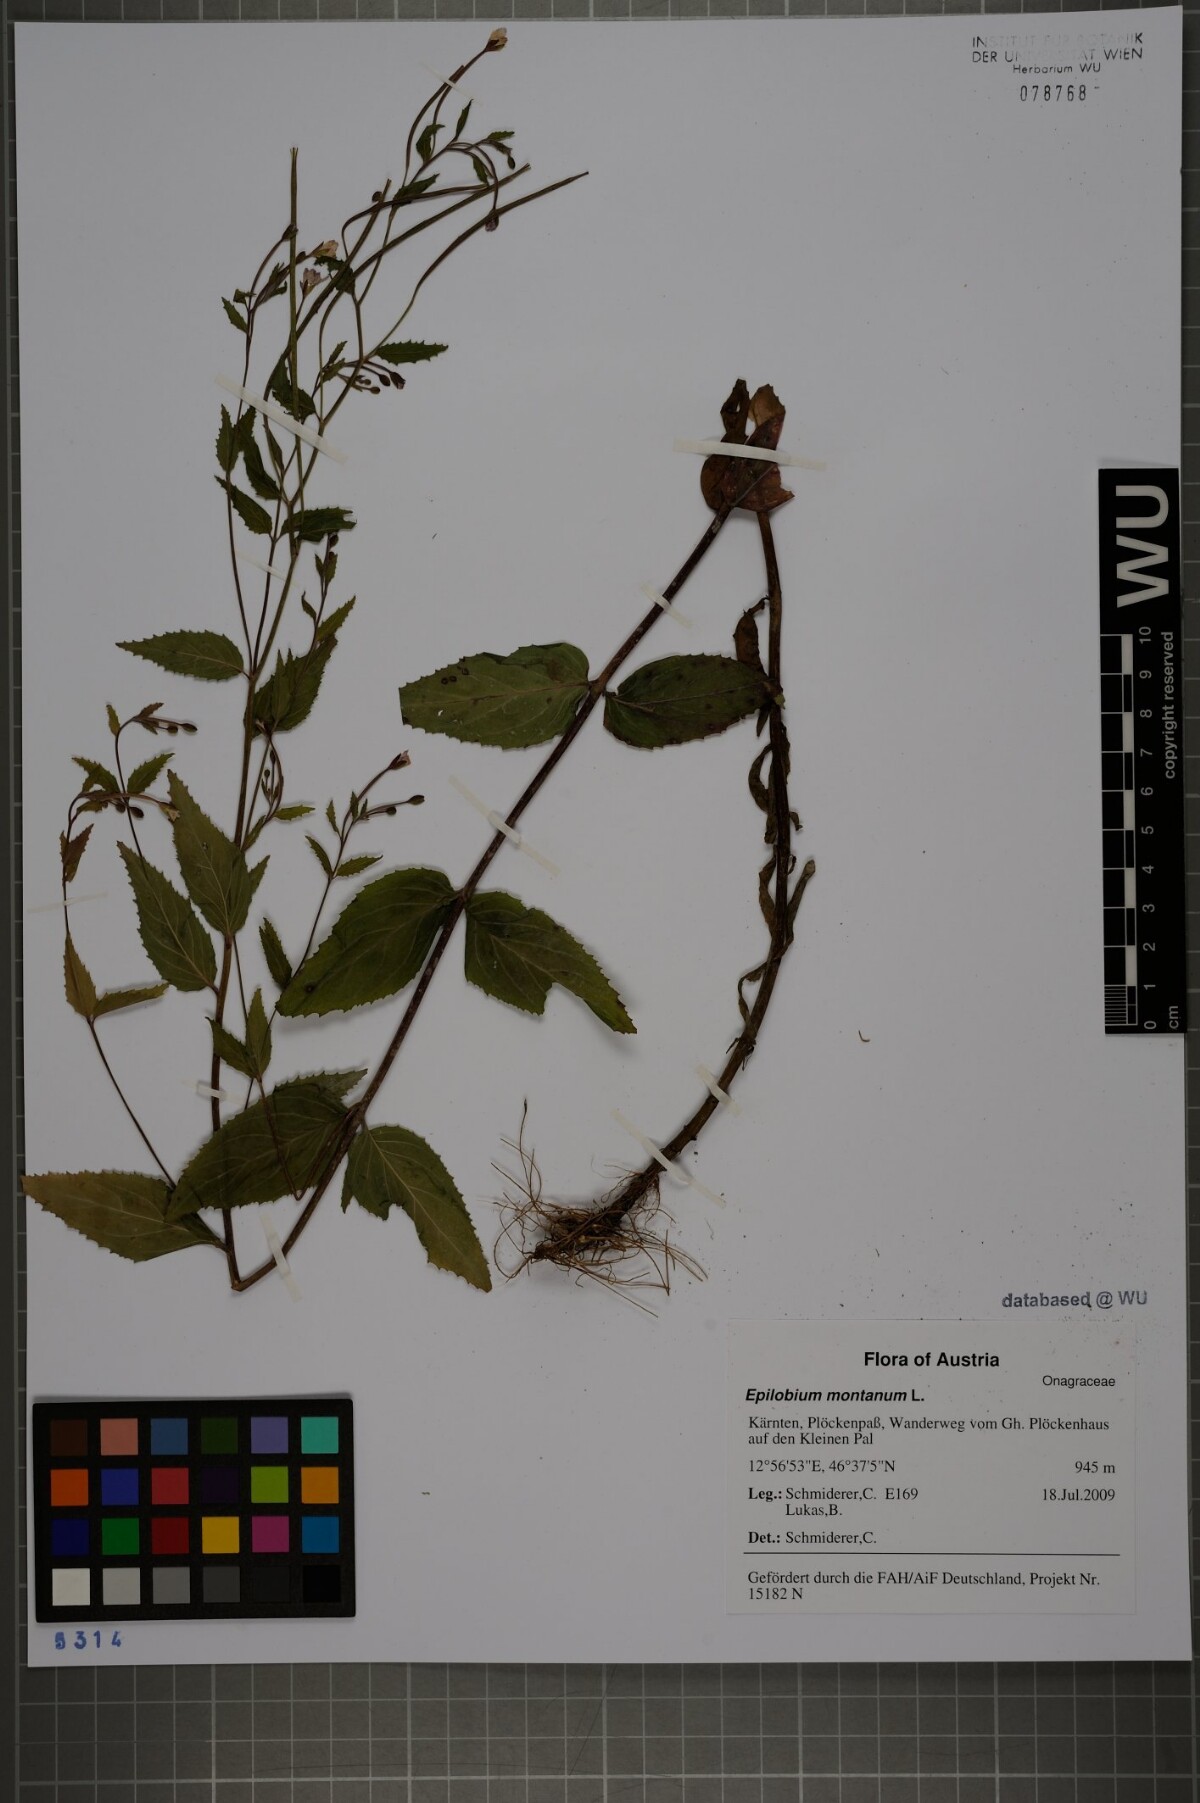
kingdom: Plantae
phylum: Tracheophyta
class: Magnoliopsida
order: Myrtales
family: Onagraceae
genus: Epilobium
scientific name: Epilobium montanum
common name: Broad-leaved willowherb
